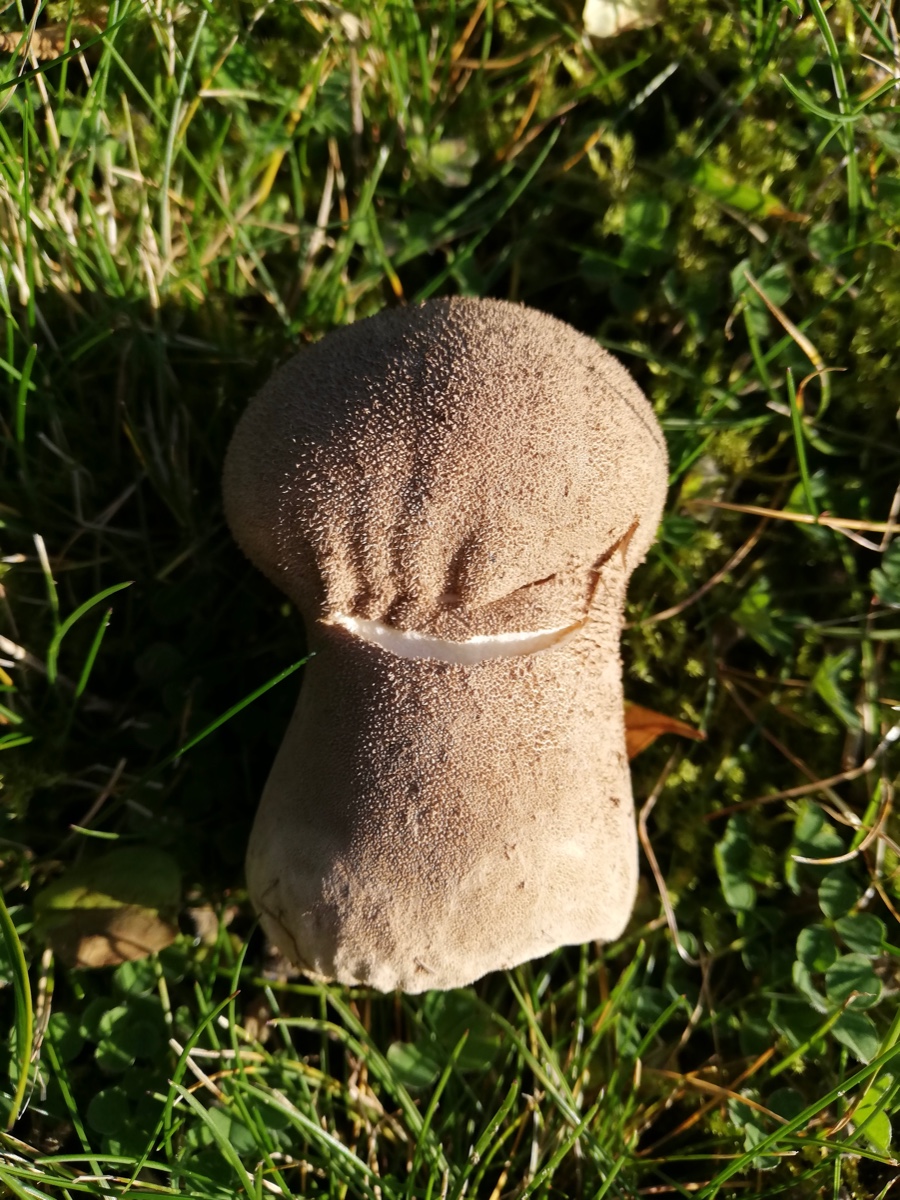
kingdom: Fungi
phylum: Basidiomycota
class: Agaricomycetes
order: Agaricales
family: Lycoperdaceae
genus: Lycoperdon
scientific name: Lycoperdon excipuliforme
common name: højstokket støvbold
